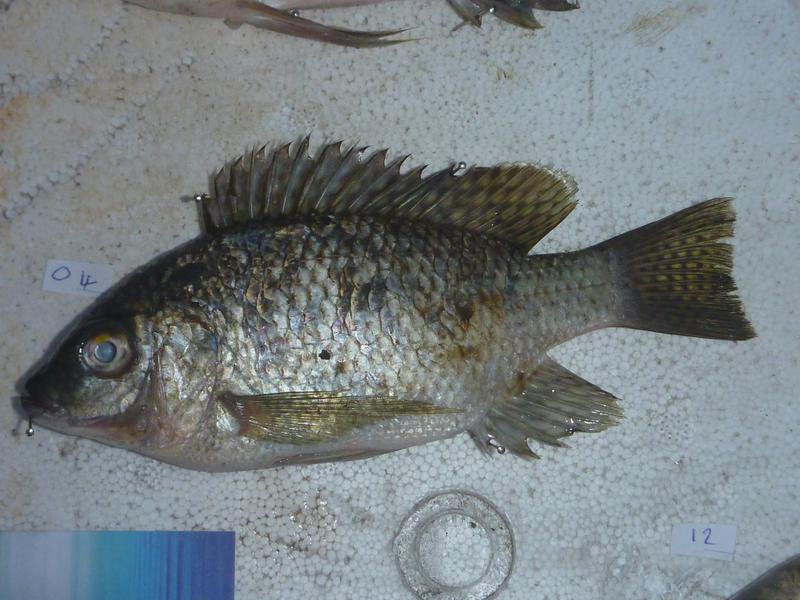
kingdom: Animalia
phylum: Chordata
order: Perciformes
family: Cichlidae
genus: Oreochromis
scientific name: Oreochromis karomo
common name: Karomo
